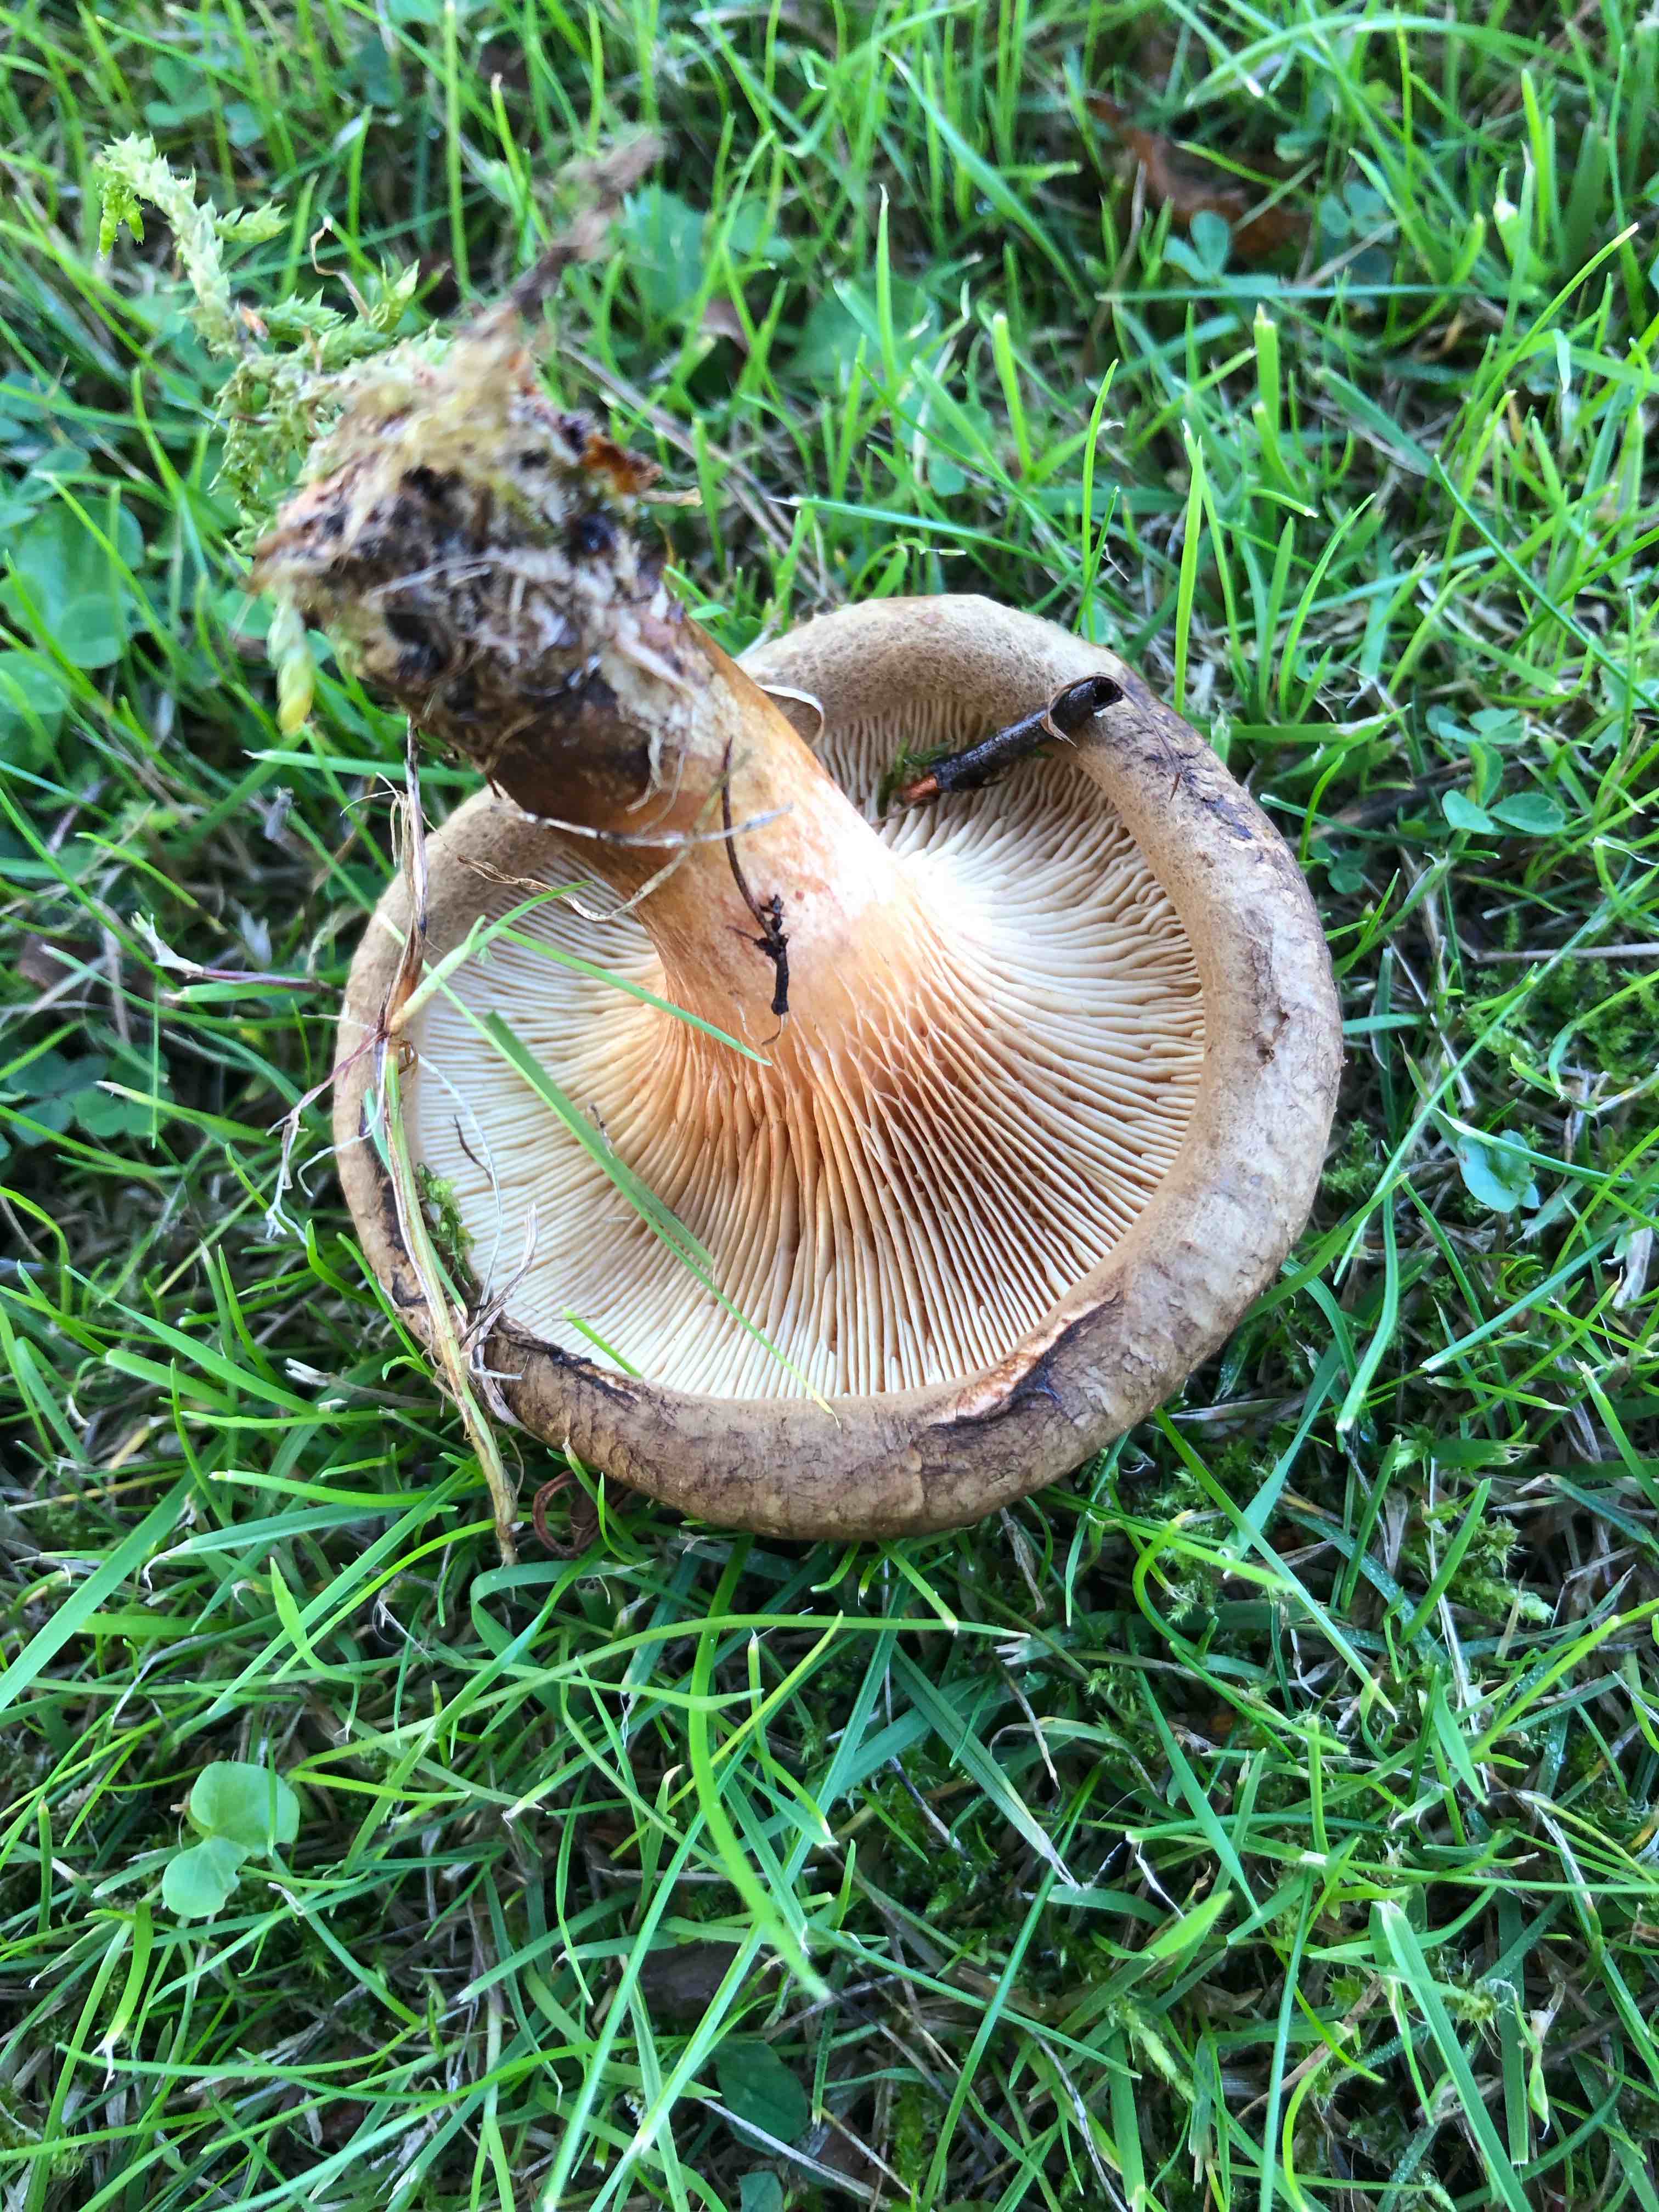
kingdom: Fungi
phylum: Basidiomycota
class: Agaricomycetes
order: Boletales
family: Paxillaceae
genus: Paxillus
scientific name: Paxillus
